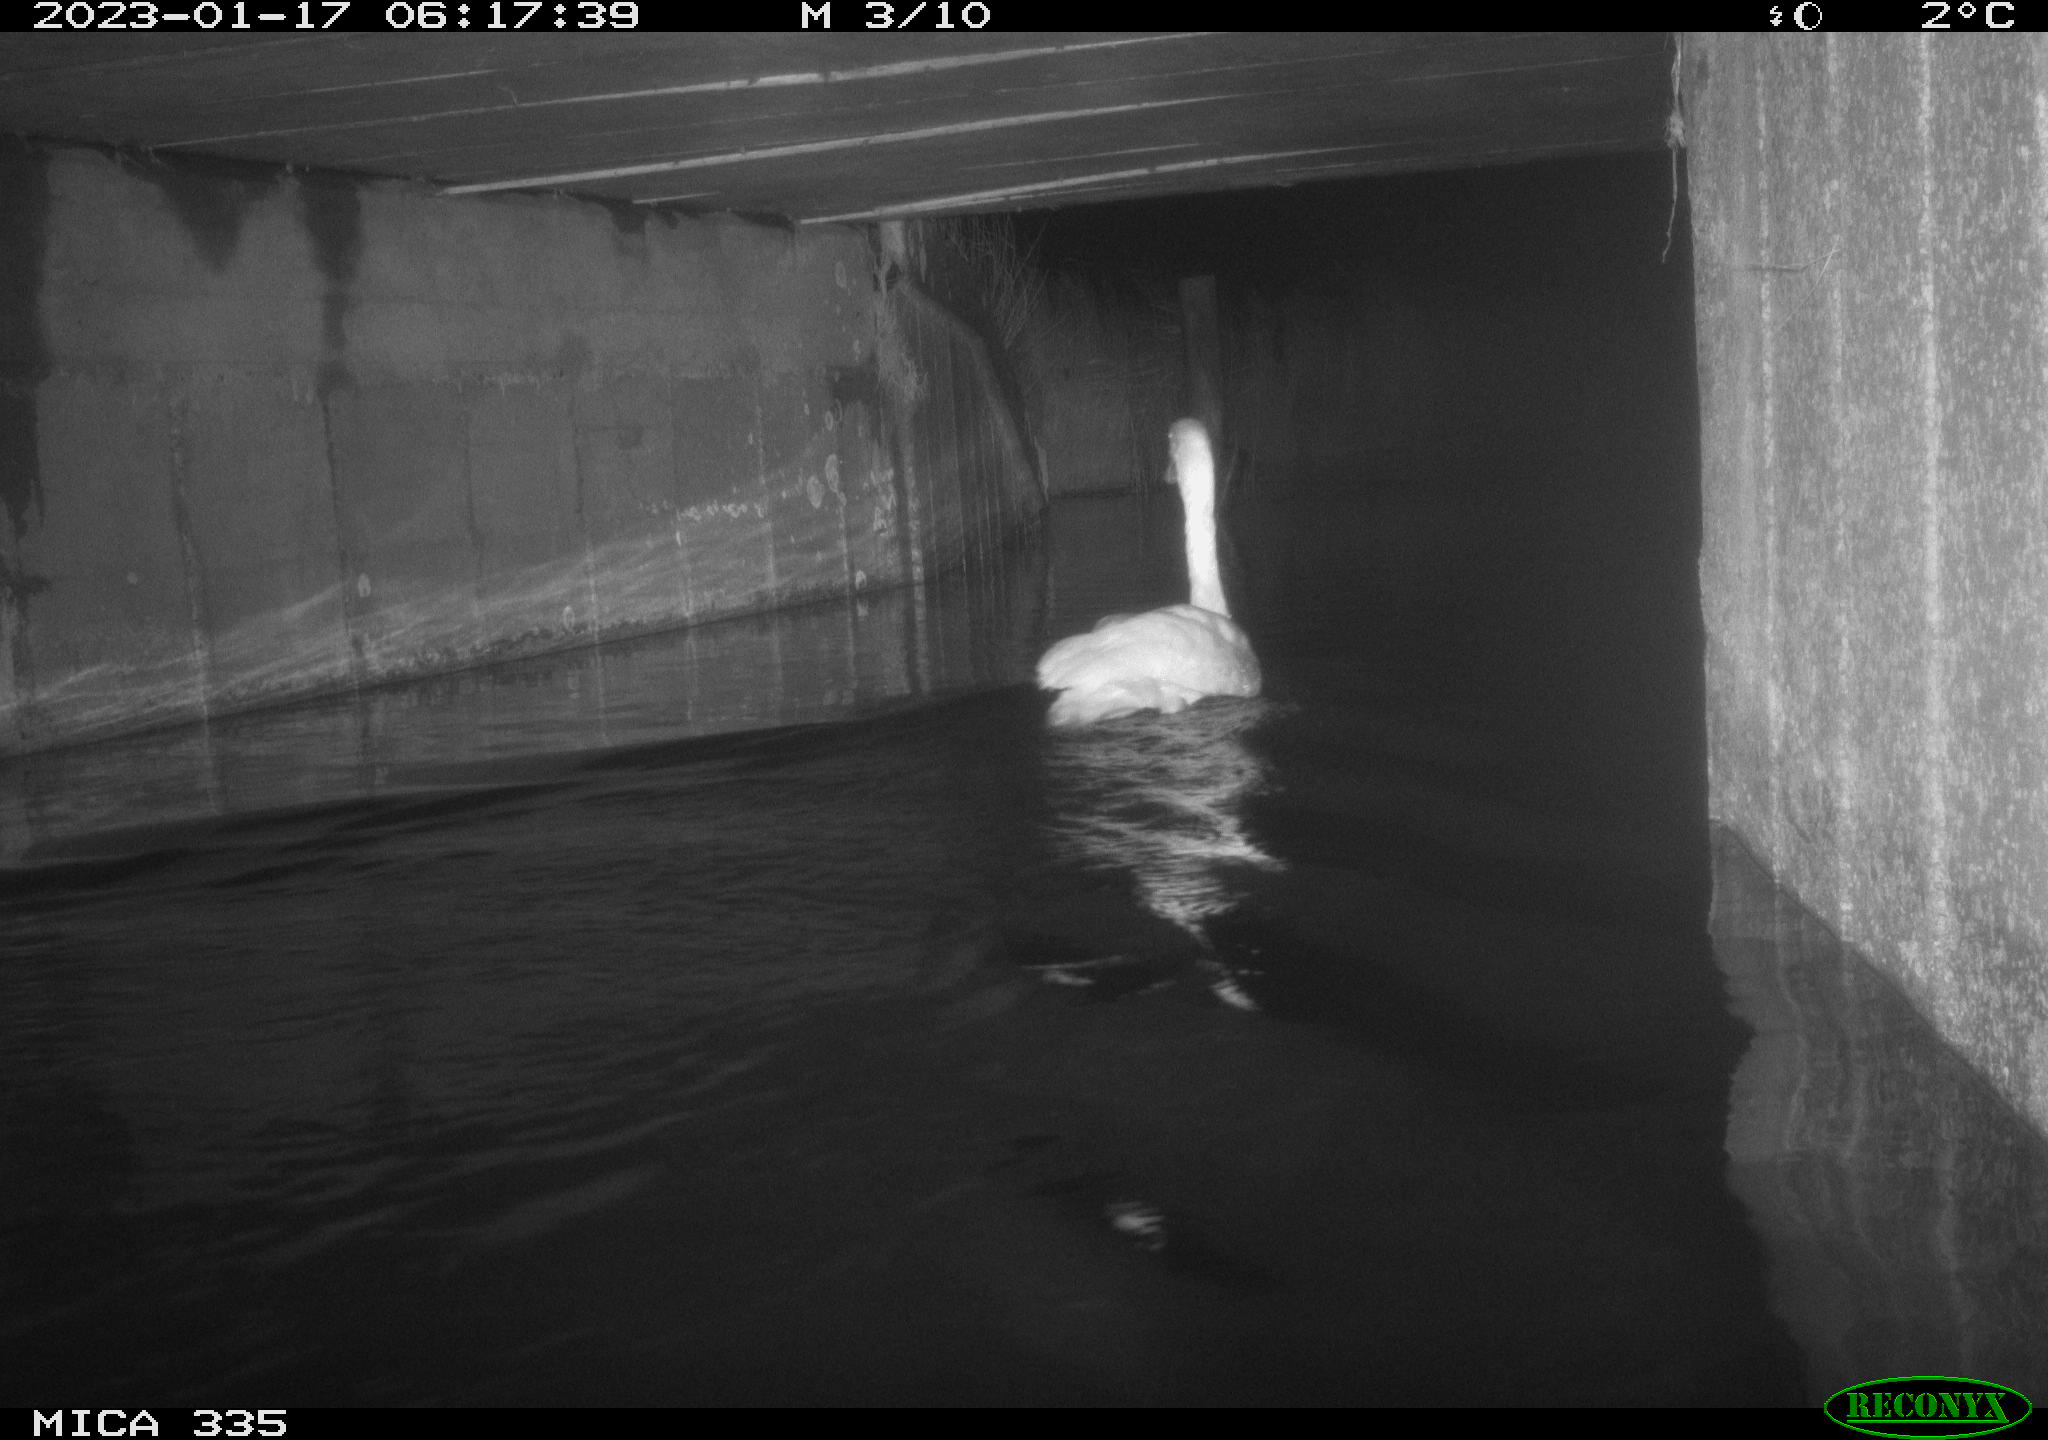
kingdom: Animalia
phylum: Chordata
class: Aves
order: Anseriformes
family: Anatidae
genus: Cygnus
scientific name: Cygnus olor
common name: Mute swan
